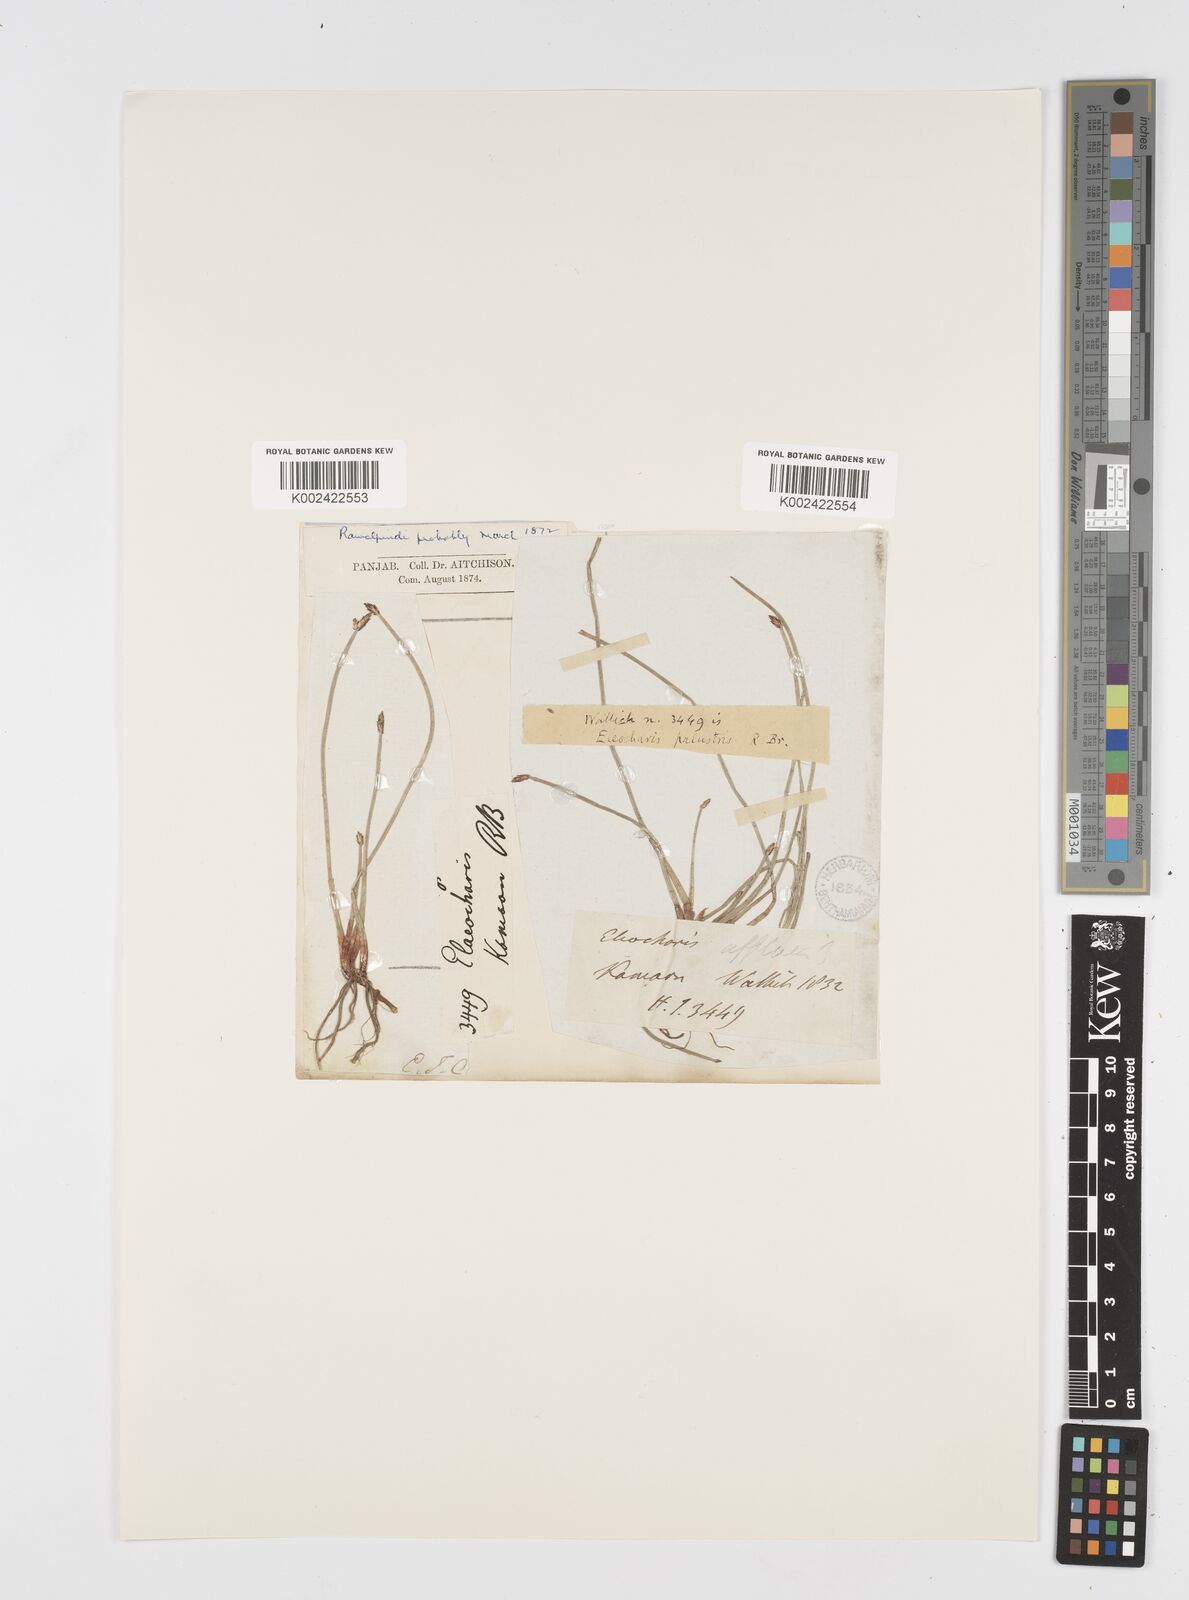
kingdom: Plantae
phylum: Tracheophyta
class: Liliopsida
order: Poales
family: Cyperaceae
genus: Eleocharis
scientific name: Eleocharis palustris
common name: Common spike-rush
